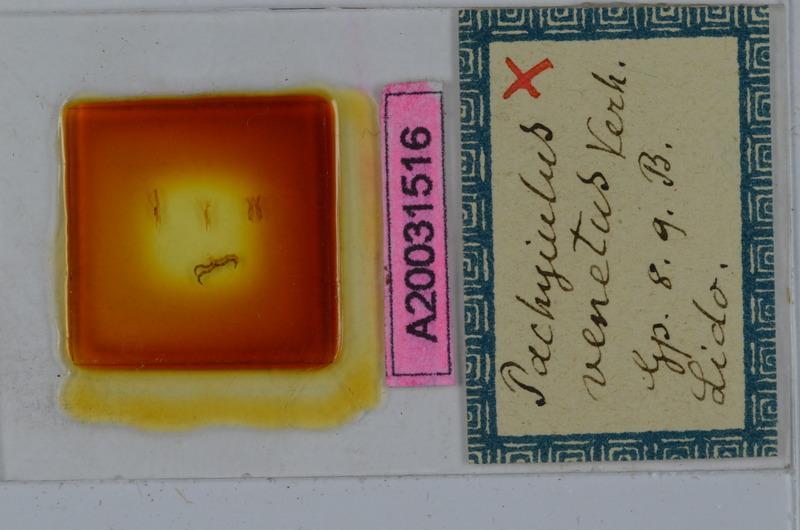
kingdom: Animalia
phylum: Arthropoda
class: Diplopoda
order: Julida
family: Julidae
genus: Pachyiulus
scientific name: Pachyiulus cattarensis
